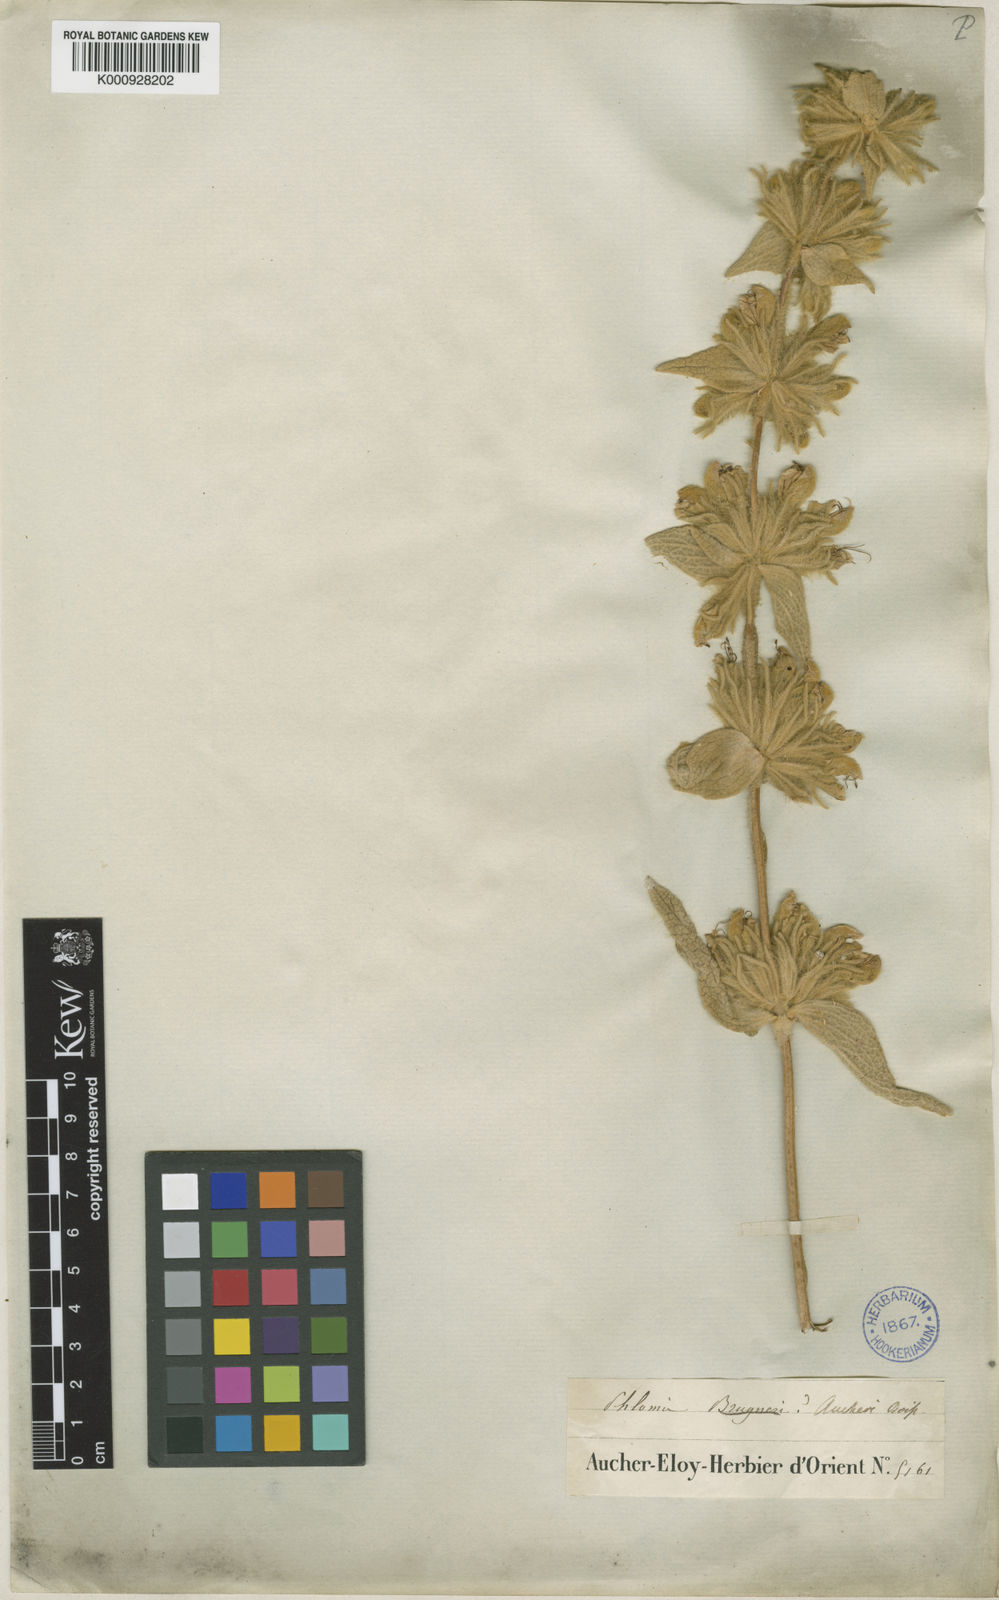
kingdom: Plantae
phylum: Tracheophyta
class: Magnoliopsida
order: Lamiales
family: Lamiaceae
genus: Phlomis
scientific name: Phlomis aucheri
